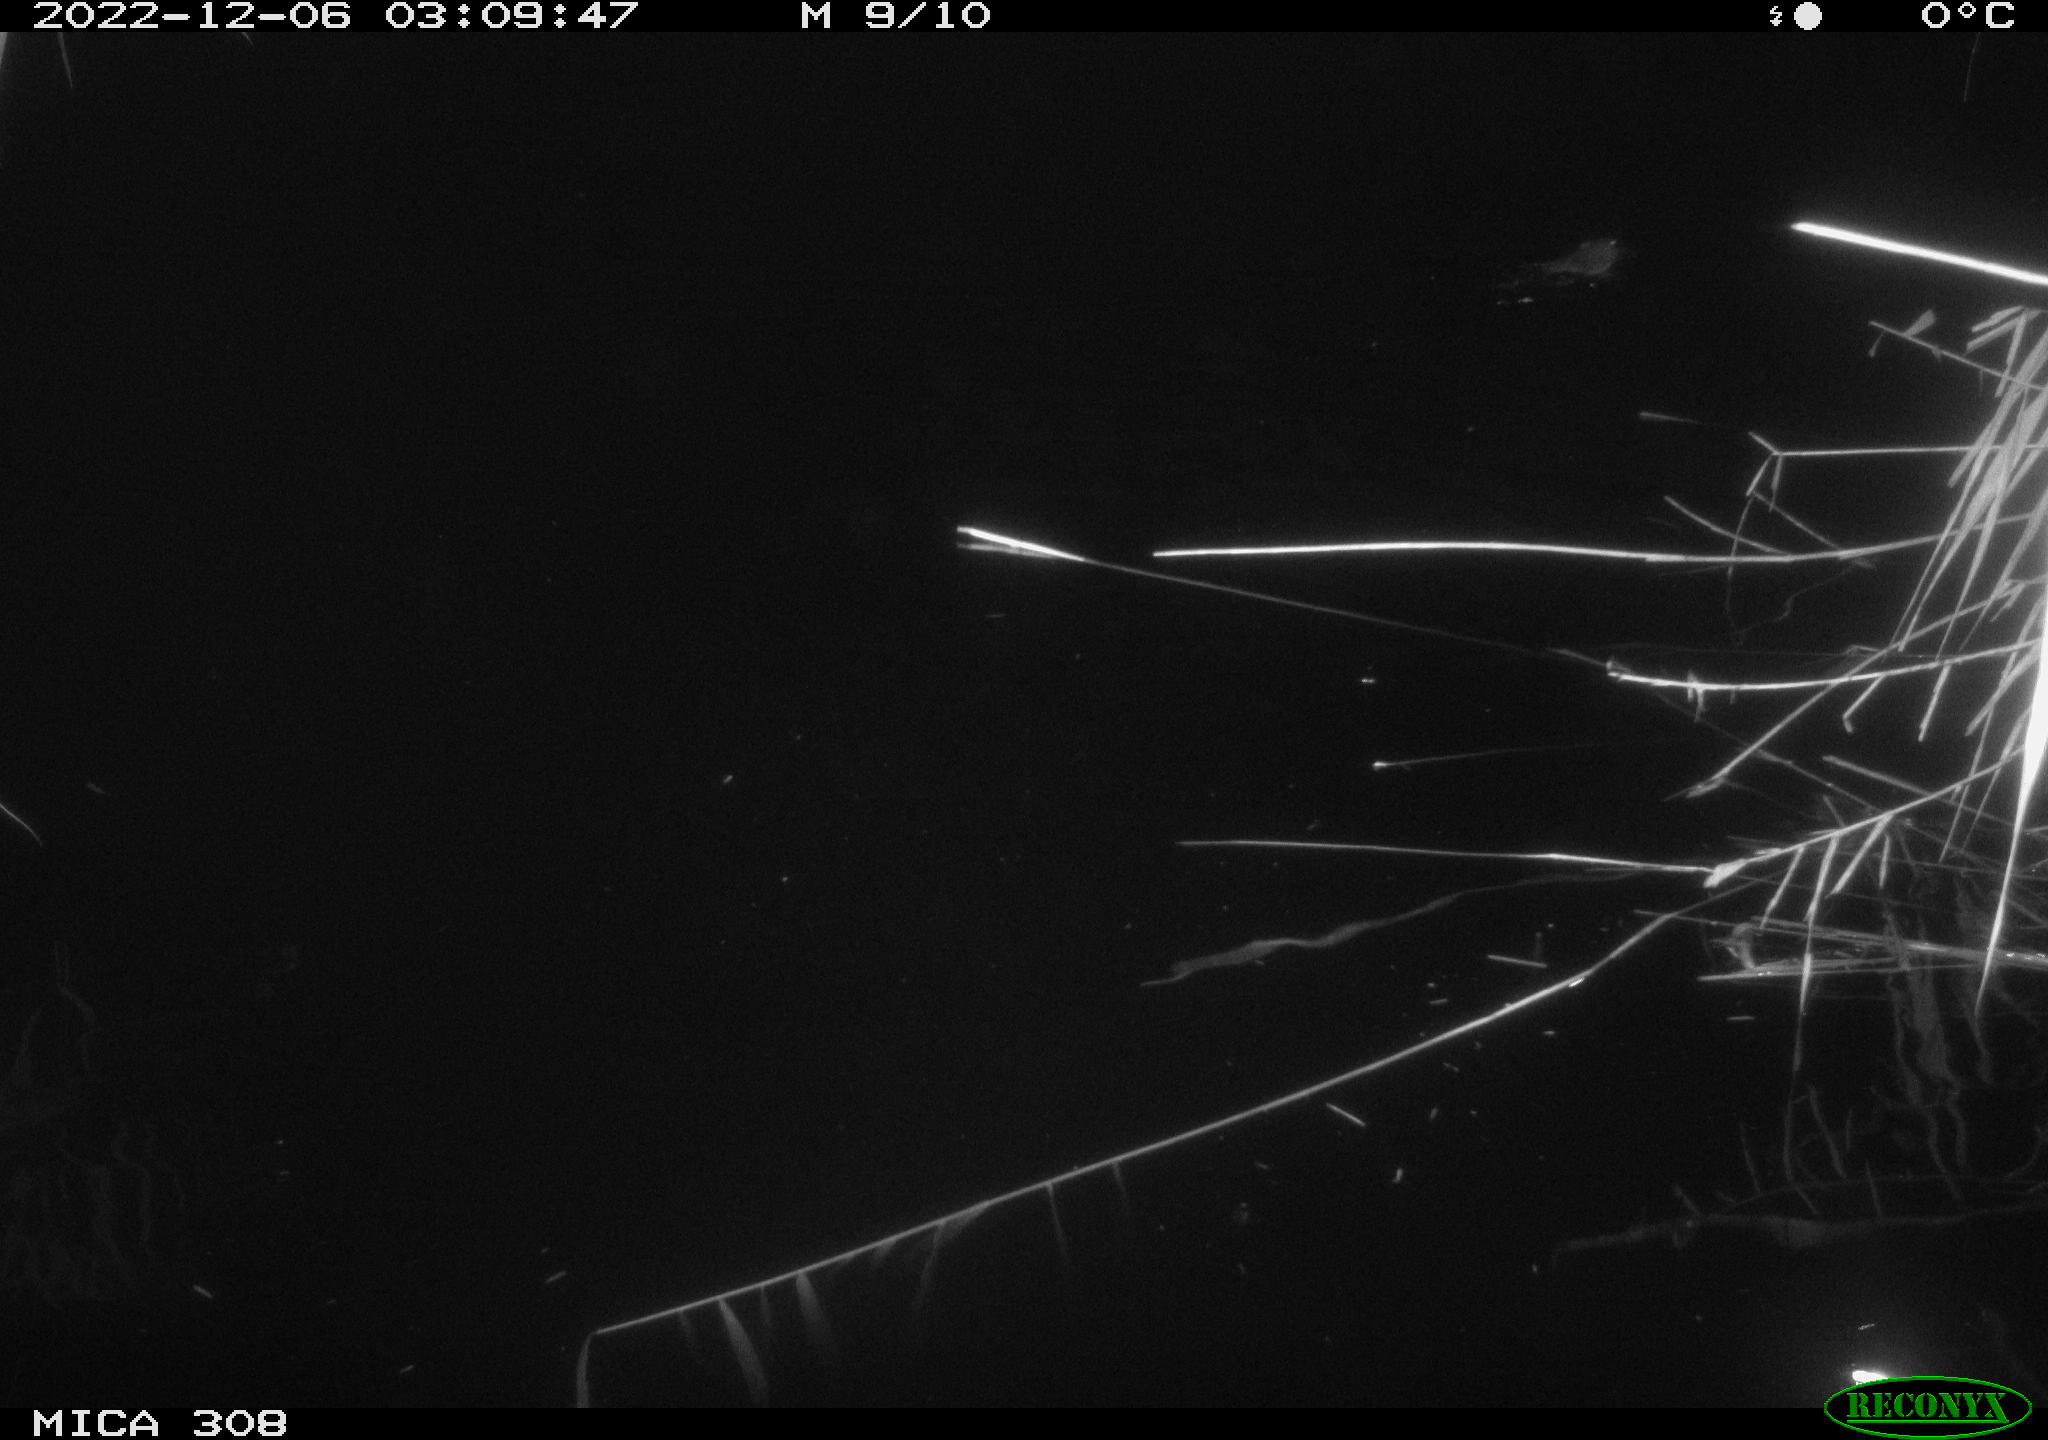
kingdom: Animalia
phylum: Chordata
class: Mammalia
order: Rodentia
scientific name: Rodentia
